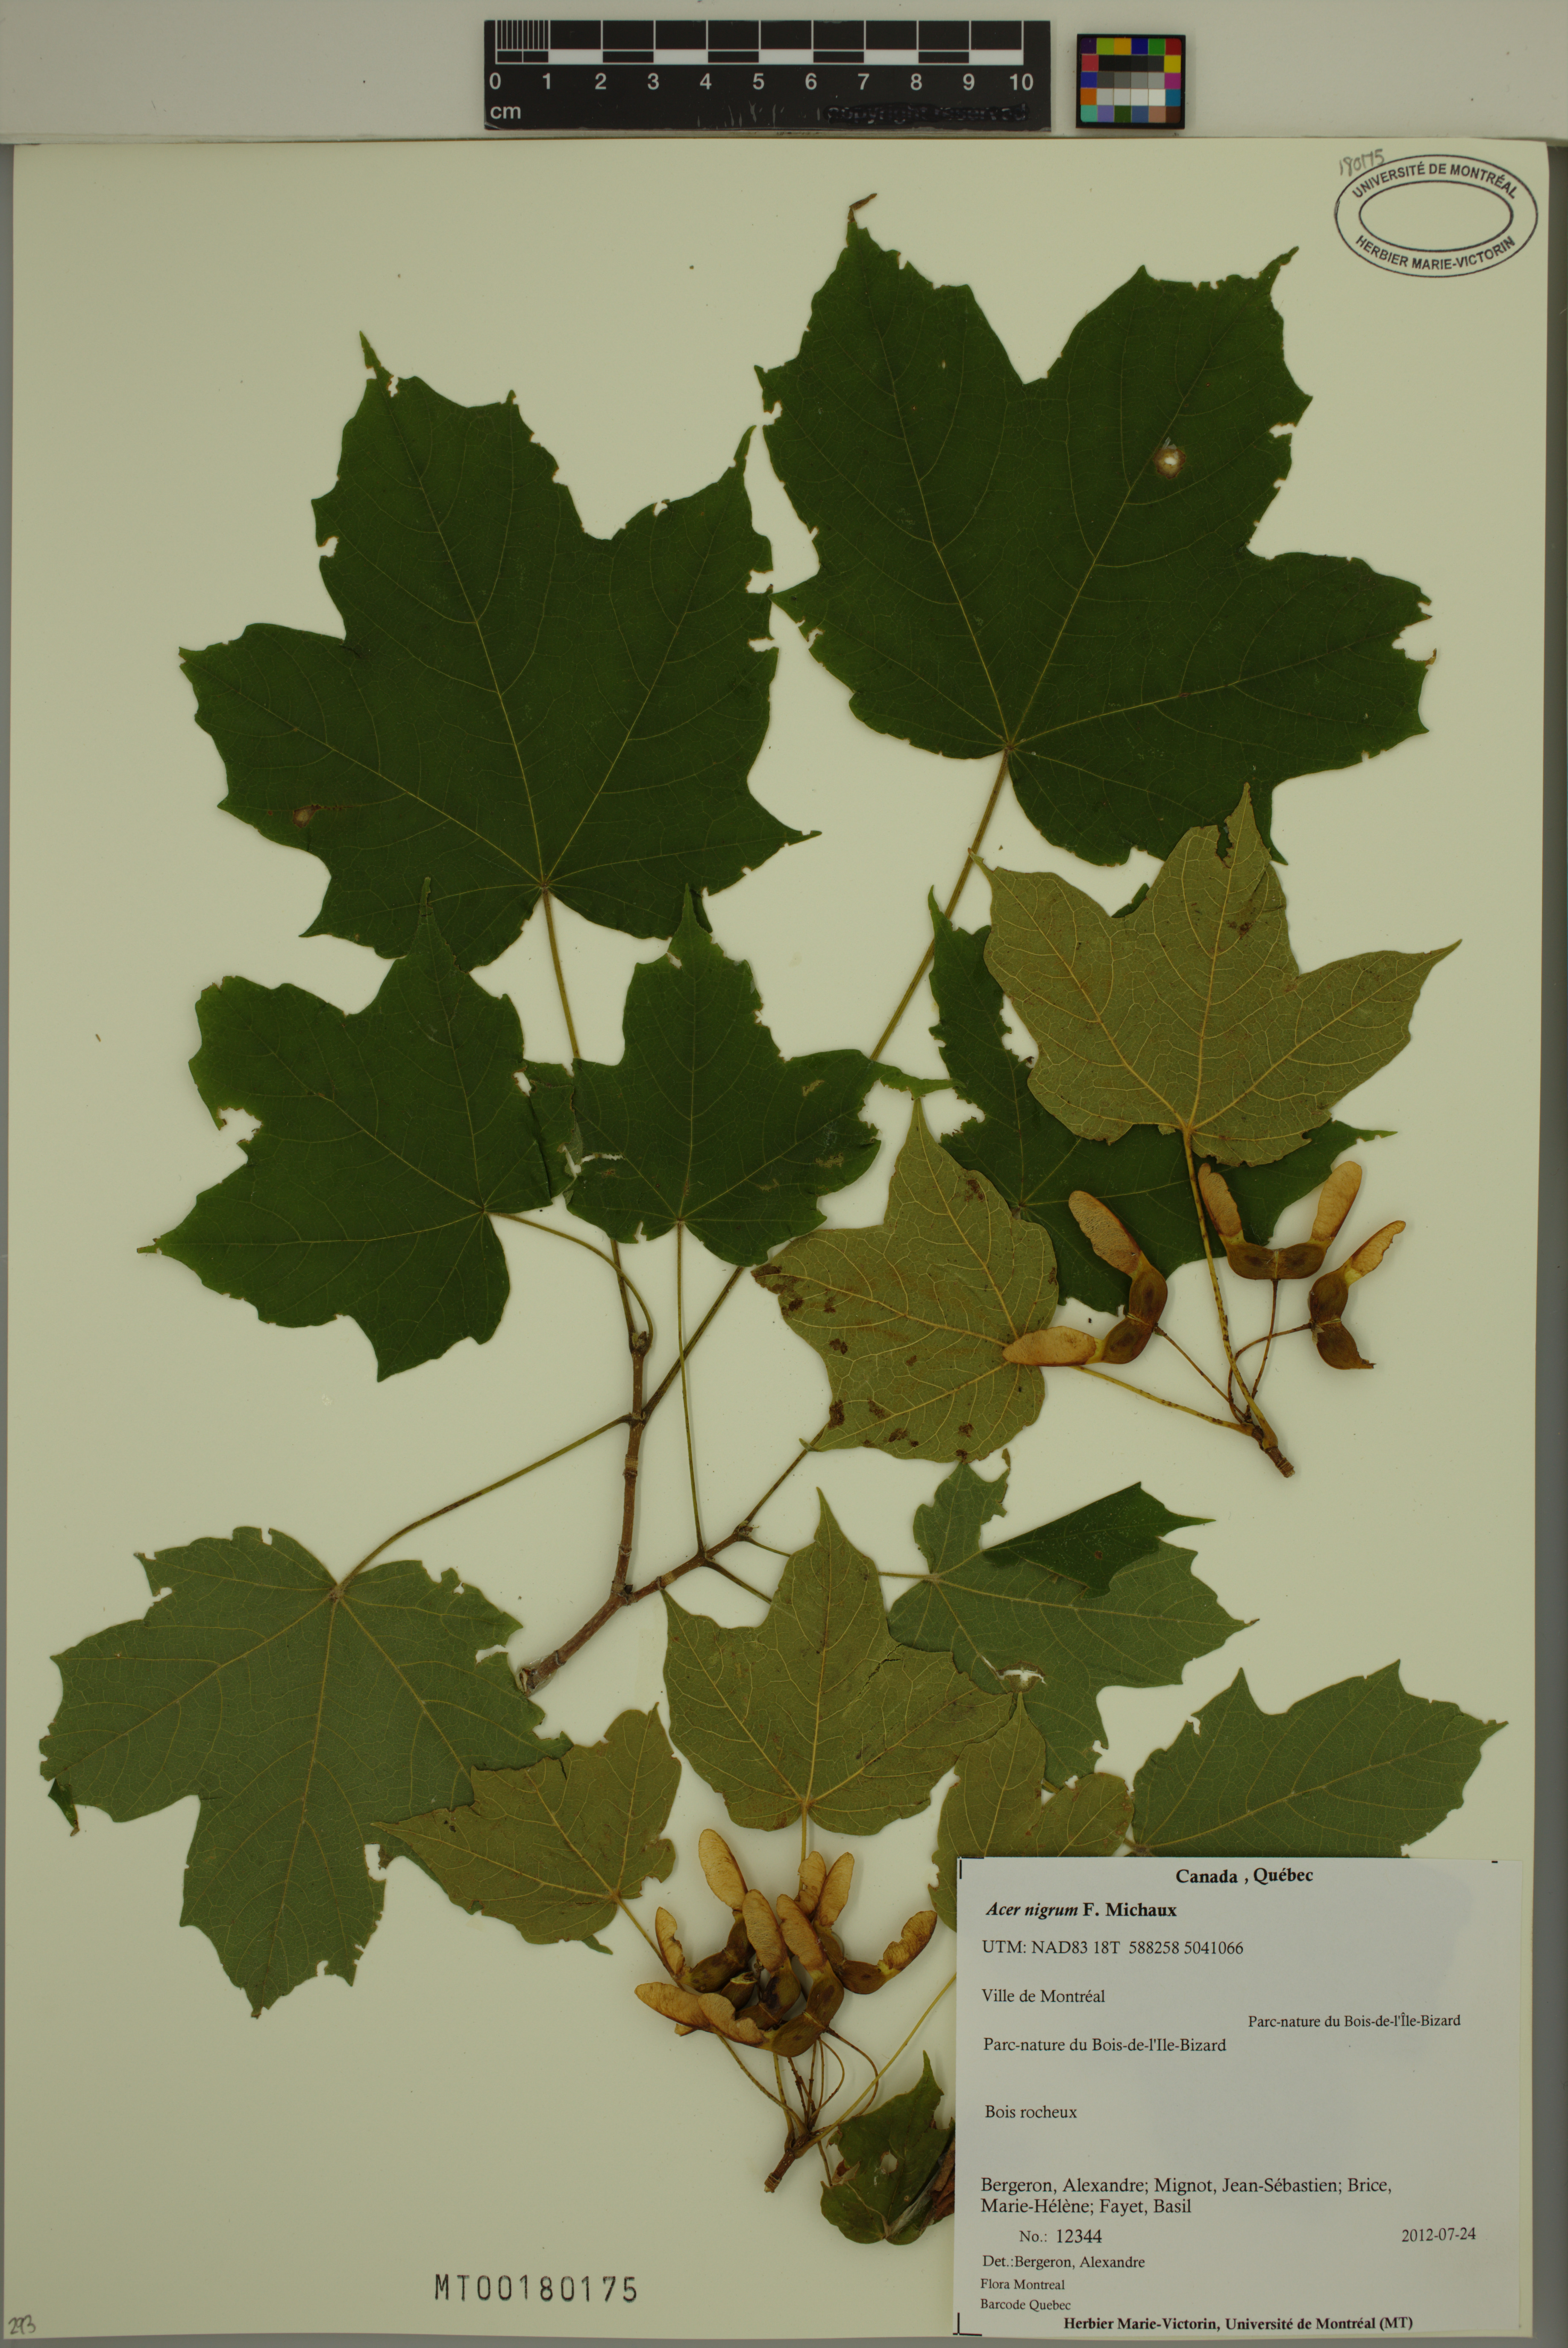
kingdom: Plantae
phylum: Tracheophyta
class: Magnoliopsida
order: Sapindales
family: Sapindaceae
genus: Acer
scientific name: Acer nigrum
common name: Black maple
